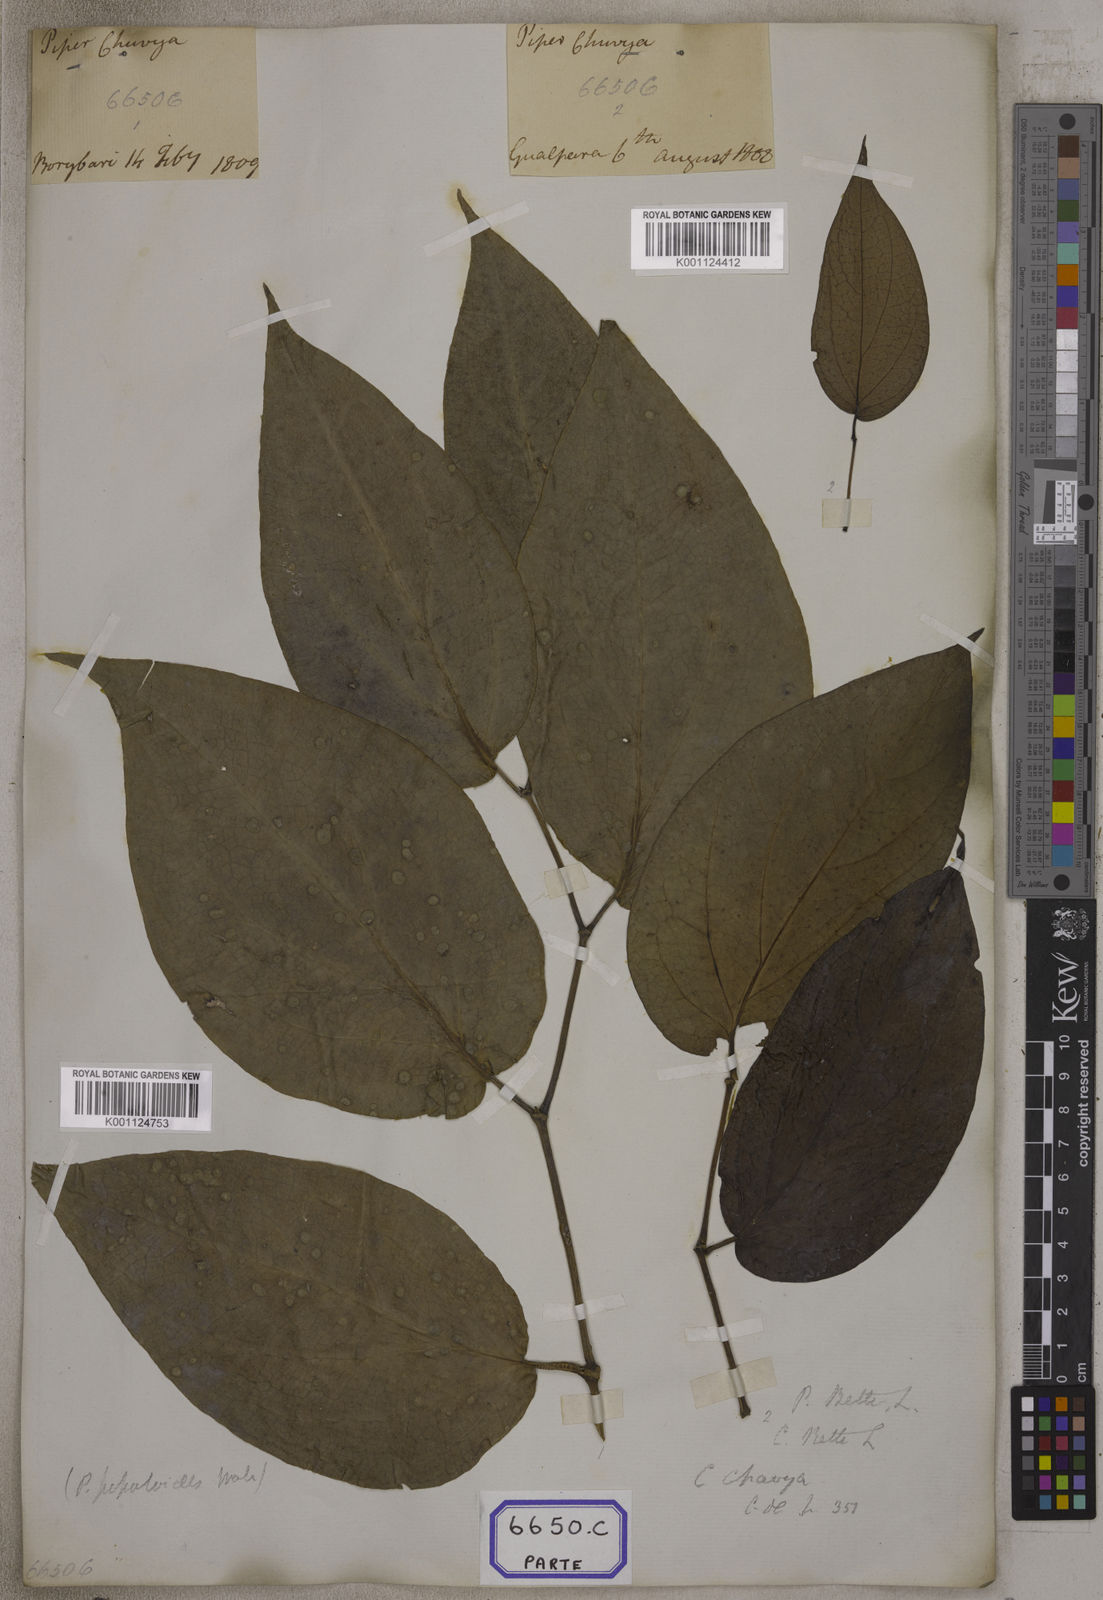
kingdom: Plantae
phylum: Tracheophyta
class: Magnoliopsida
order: Piperales
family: Piperaceae
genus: Piper
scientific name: Piper
